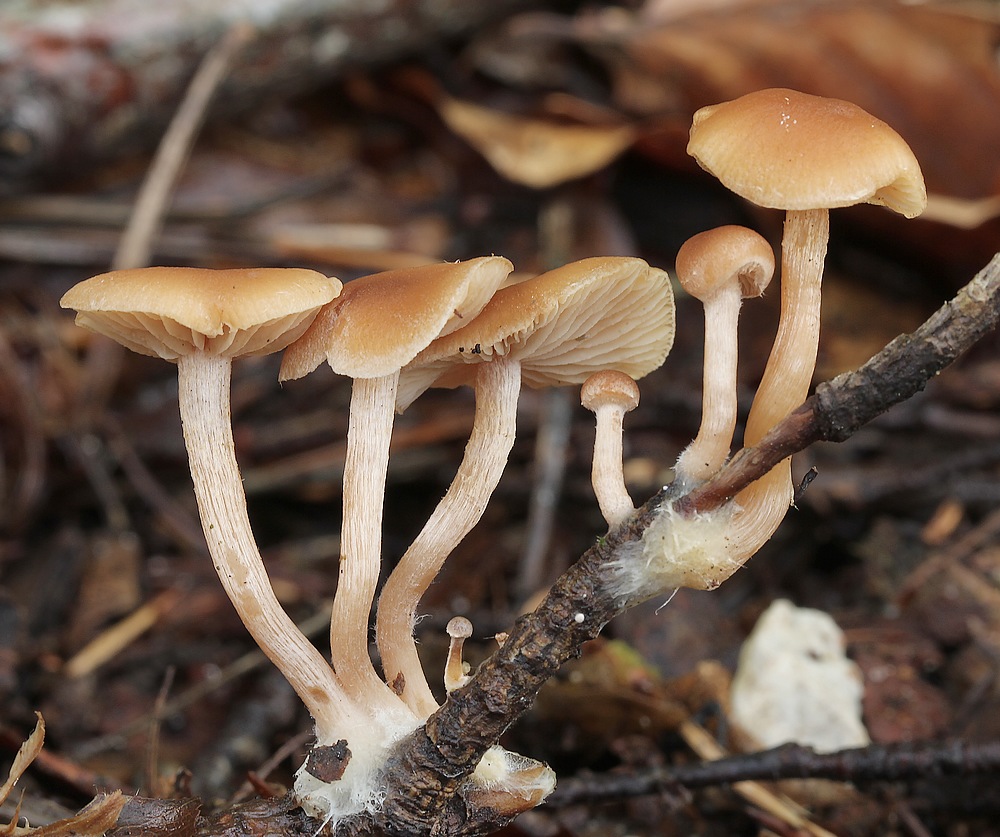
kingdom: Fungi
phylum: Basidiomycota
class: Agaricomycetes
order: Agaricales
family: Tubariaceae
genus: Tubaria
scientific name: Tubaria
